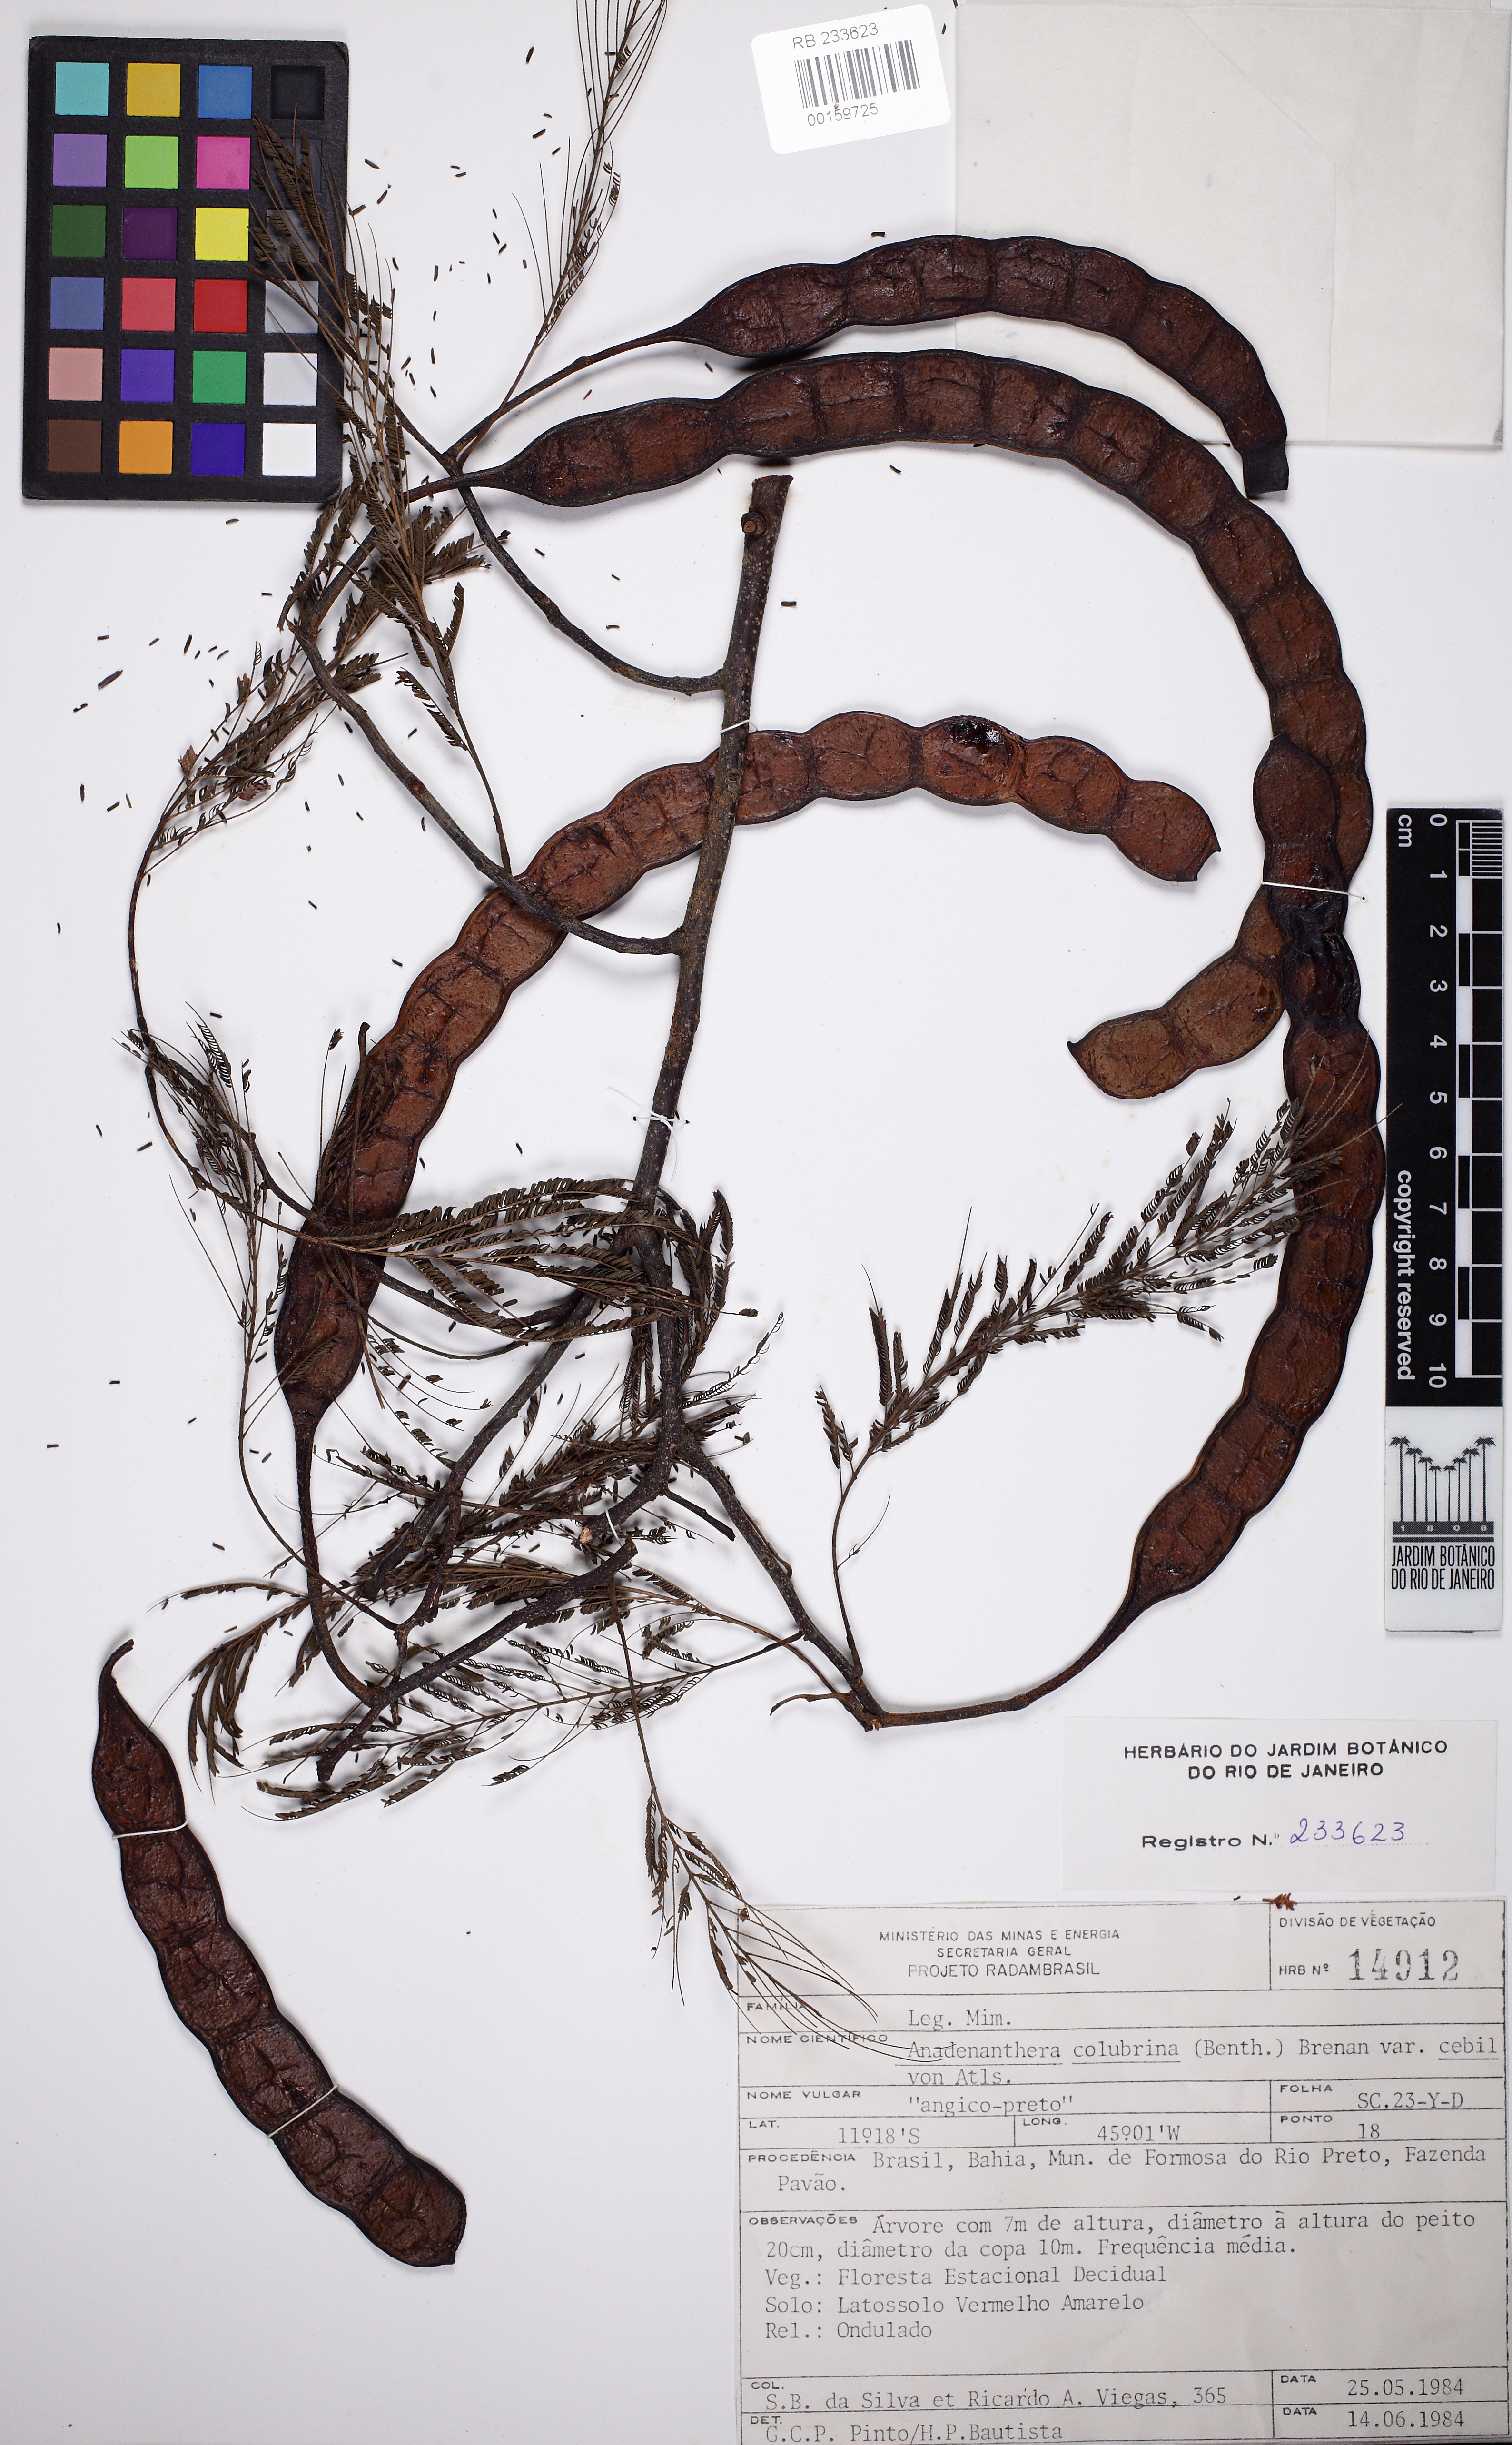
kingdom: Plantae
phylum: Tracheophyta
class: Magnoliopsida
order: Fabales
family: Fabaceae
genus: Anadenanthera
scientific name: Anadenanthera colubrina
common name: Curupay
